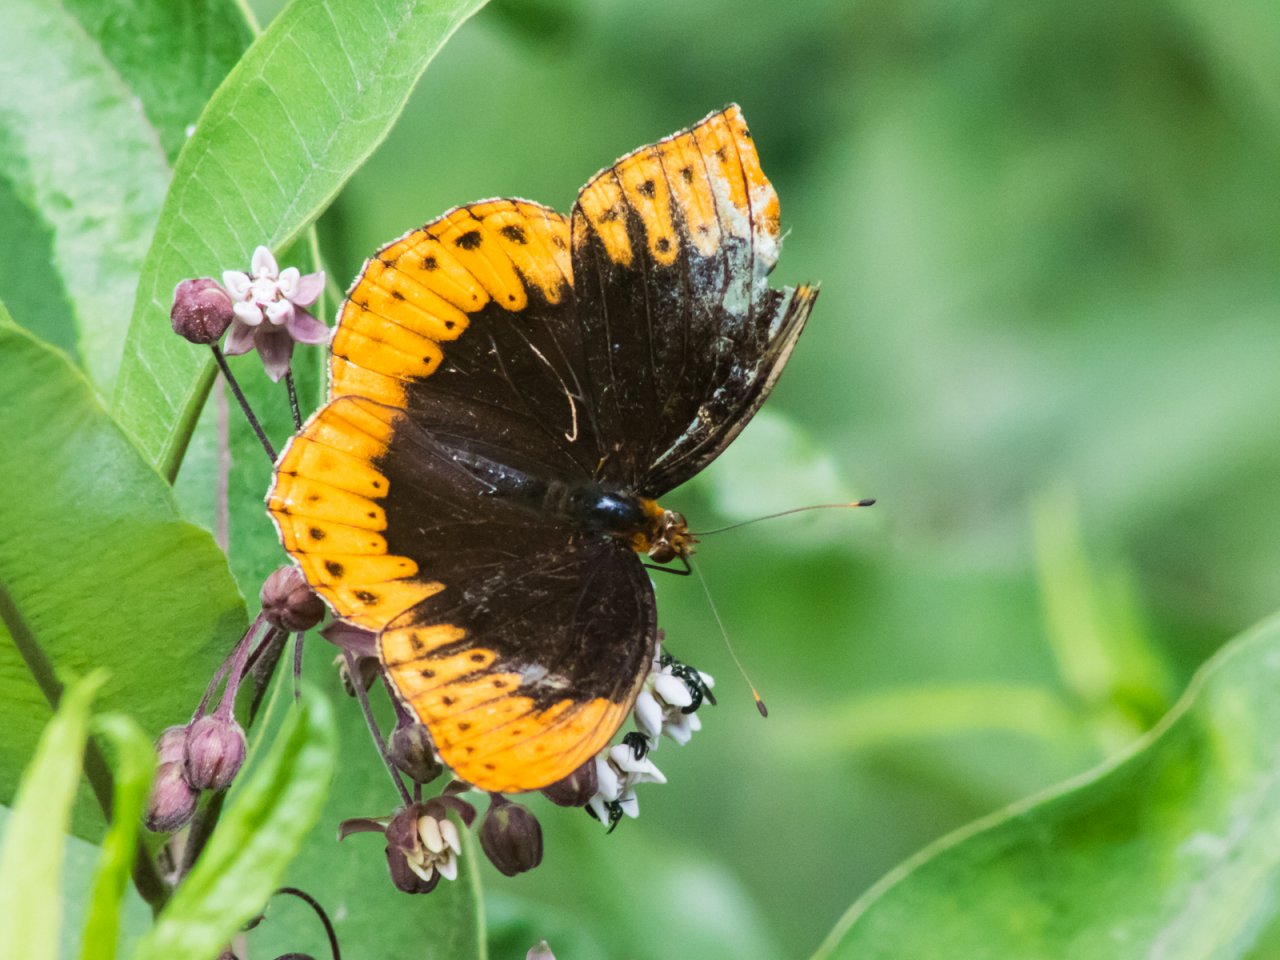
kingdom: Animalia
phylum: Arthropoda
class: Insecta
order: Lepidoptera
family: Nymphalidae
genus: Speyeria
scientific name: Speyeria diana
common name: Diana Fritillary
